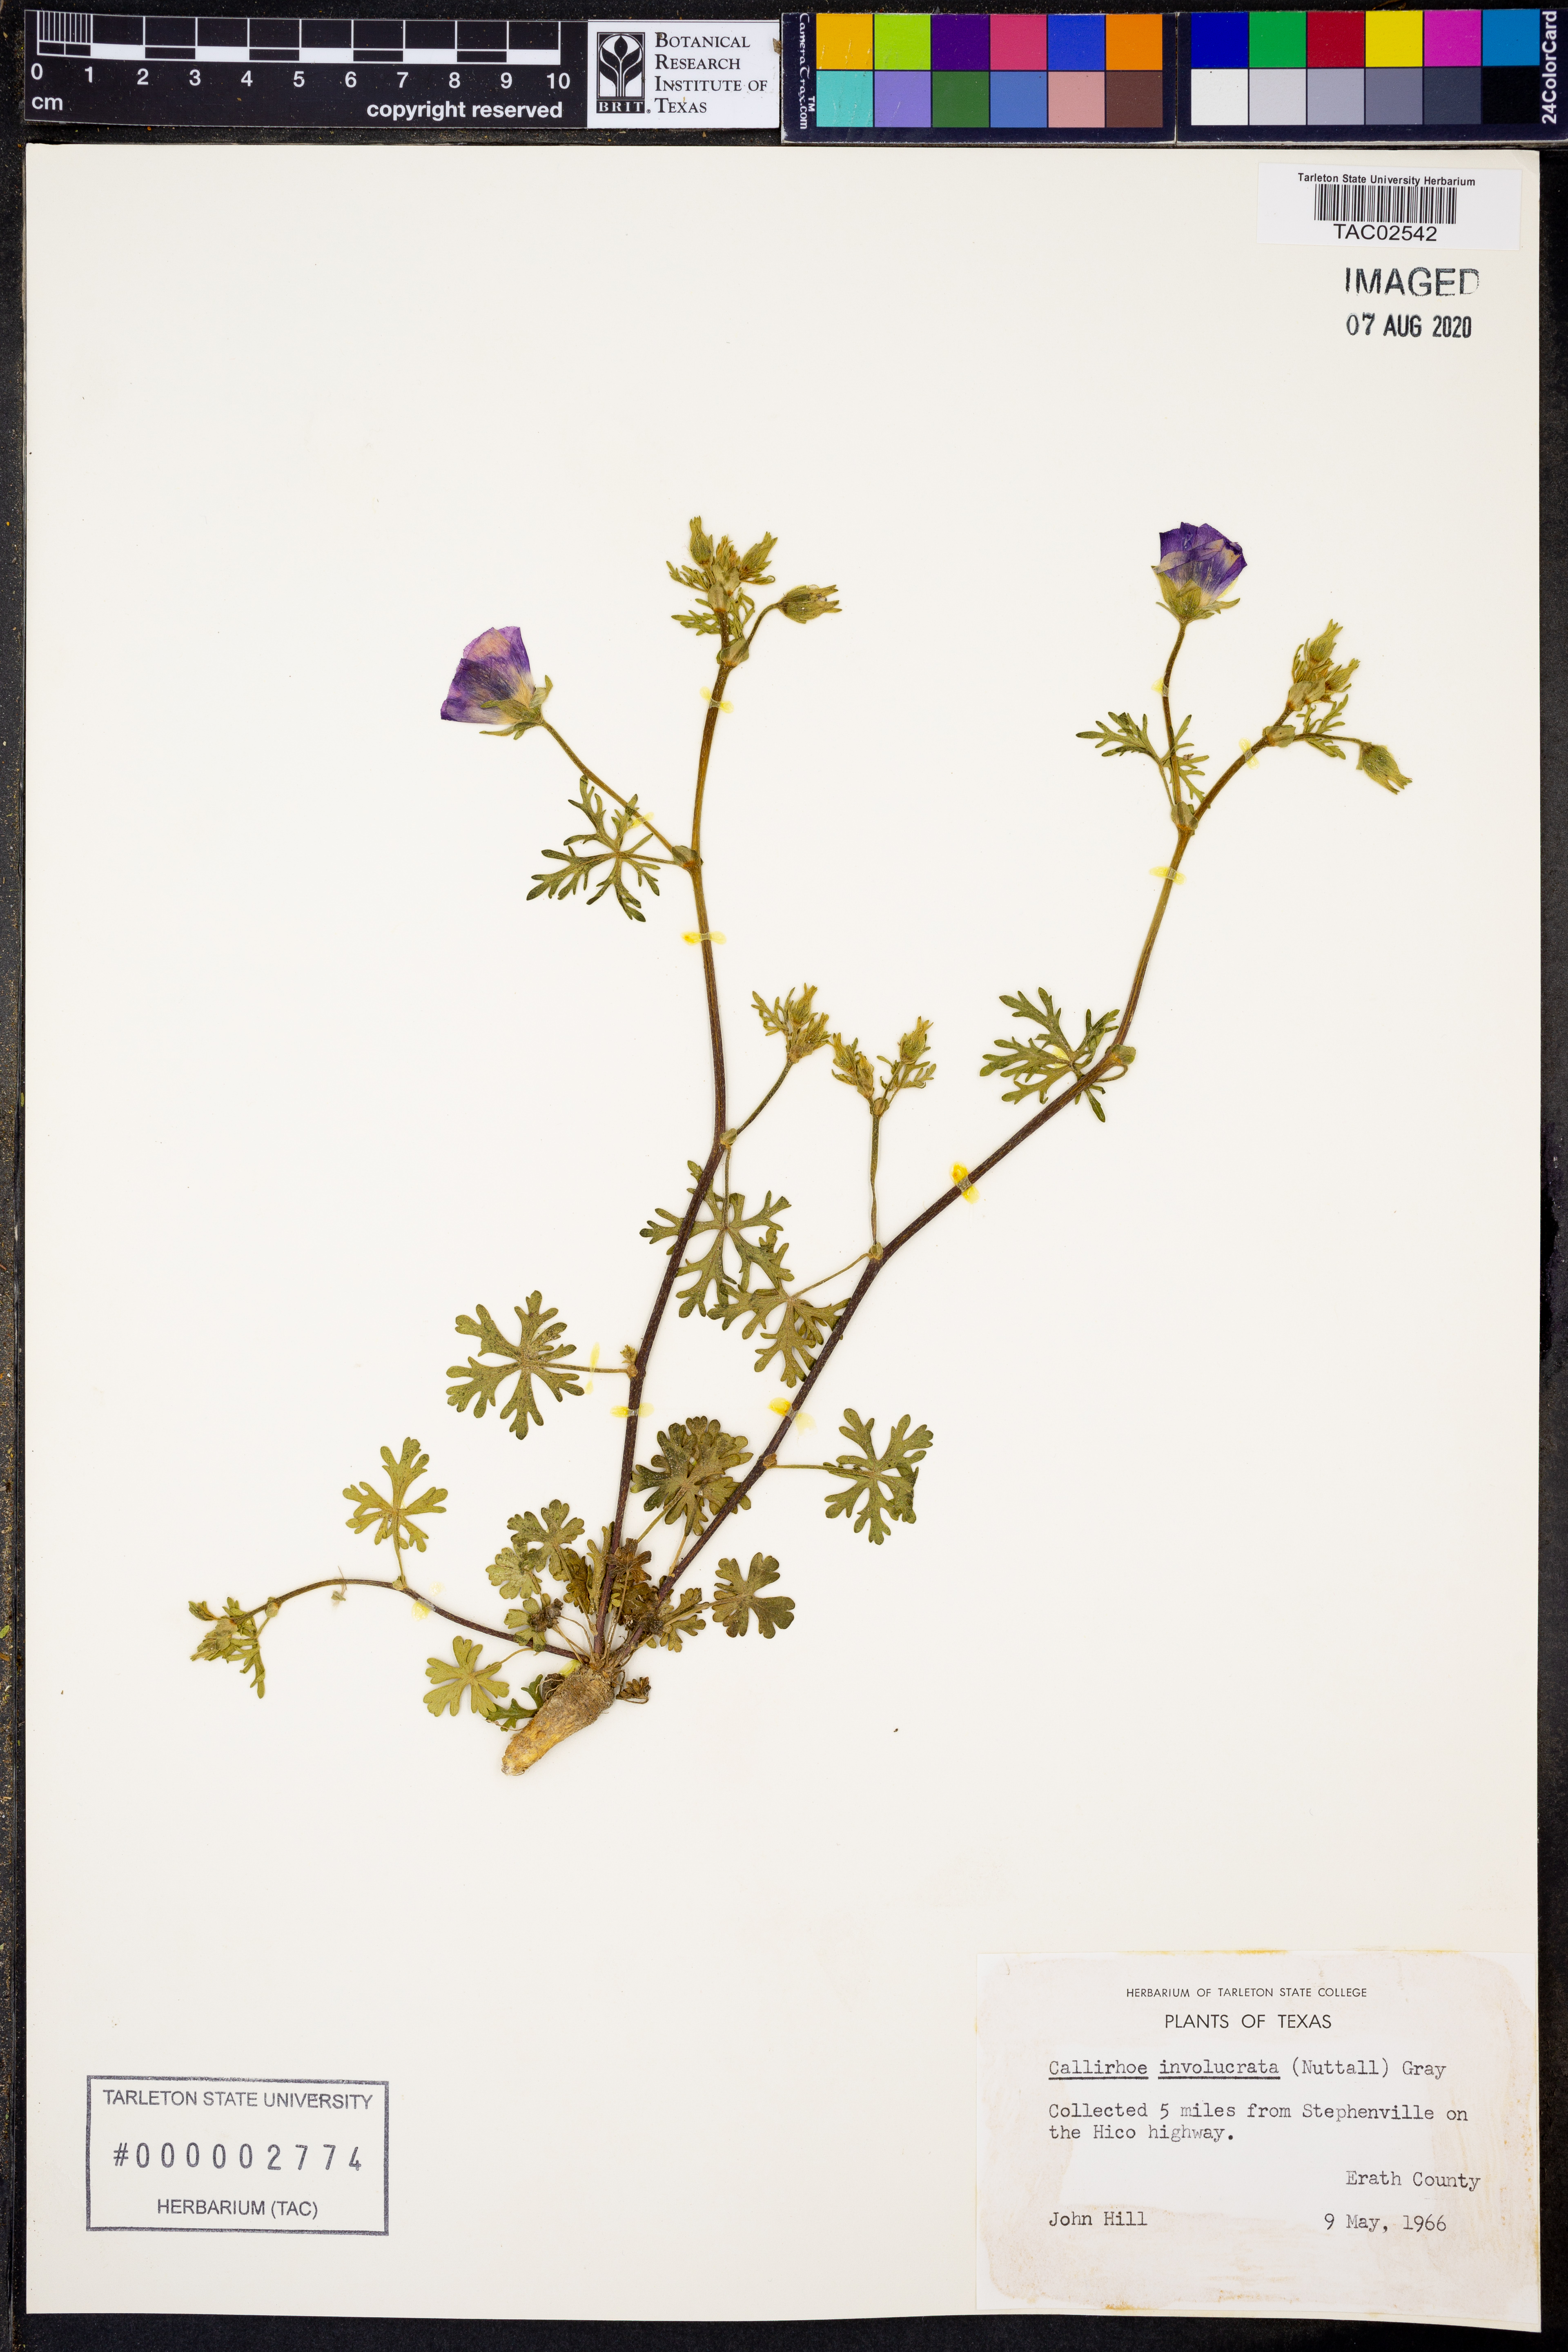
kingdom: Plantae
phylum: Tracheophyta
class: Magnoliopsida
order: Malvales
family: Malvaceae
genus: Callirhoe
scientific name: Callirhoe involucrata
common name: Purple poppy-mallow
